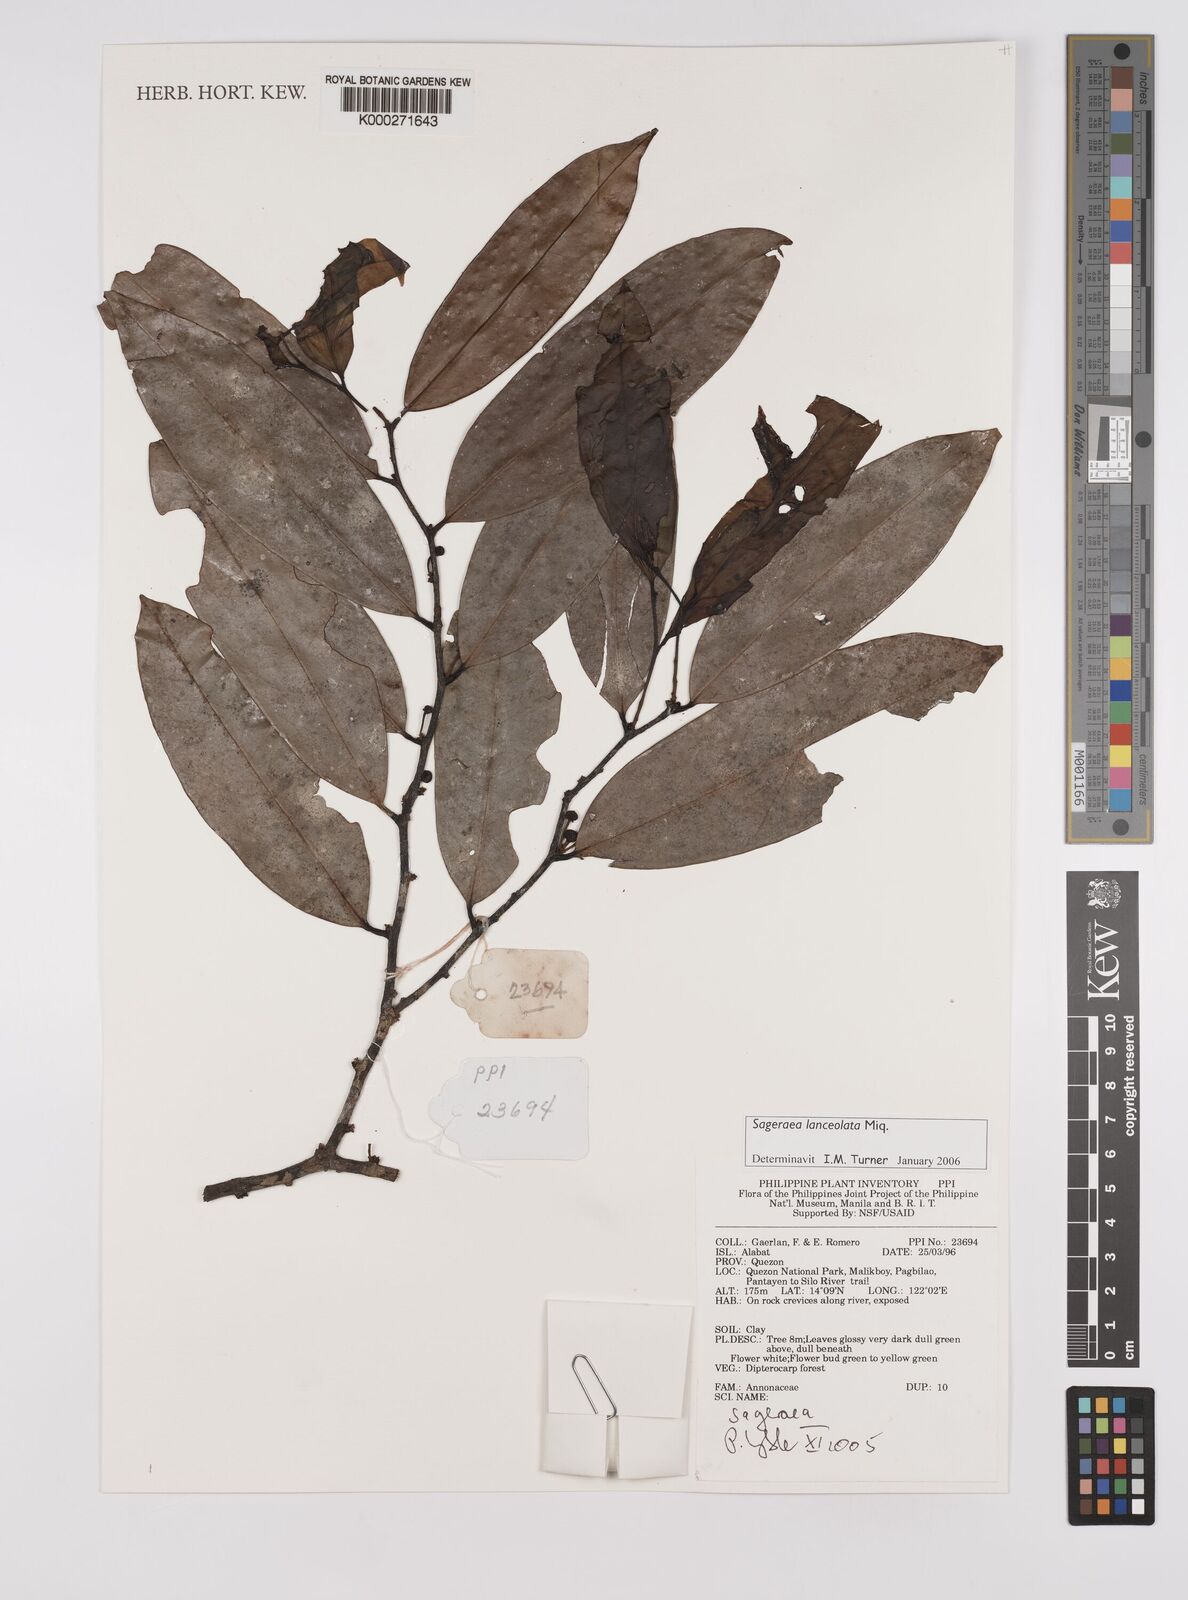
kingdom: Plantae
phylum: Tracheophyta
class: Magnoliopsida
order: Magnoliales
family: Annonaceae
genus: Sageraea
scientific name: Sageraea lanceolata
